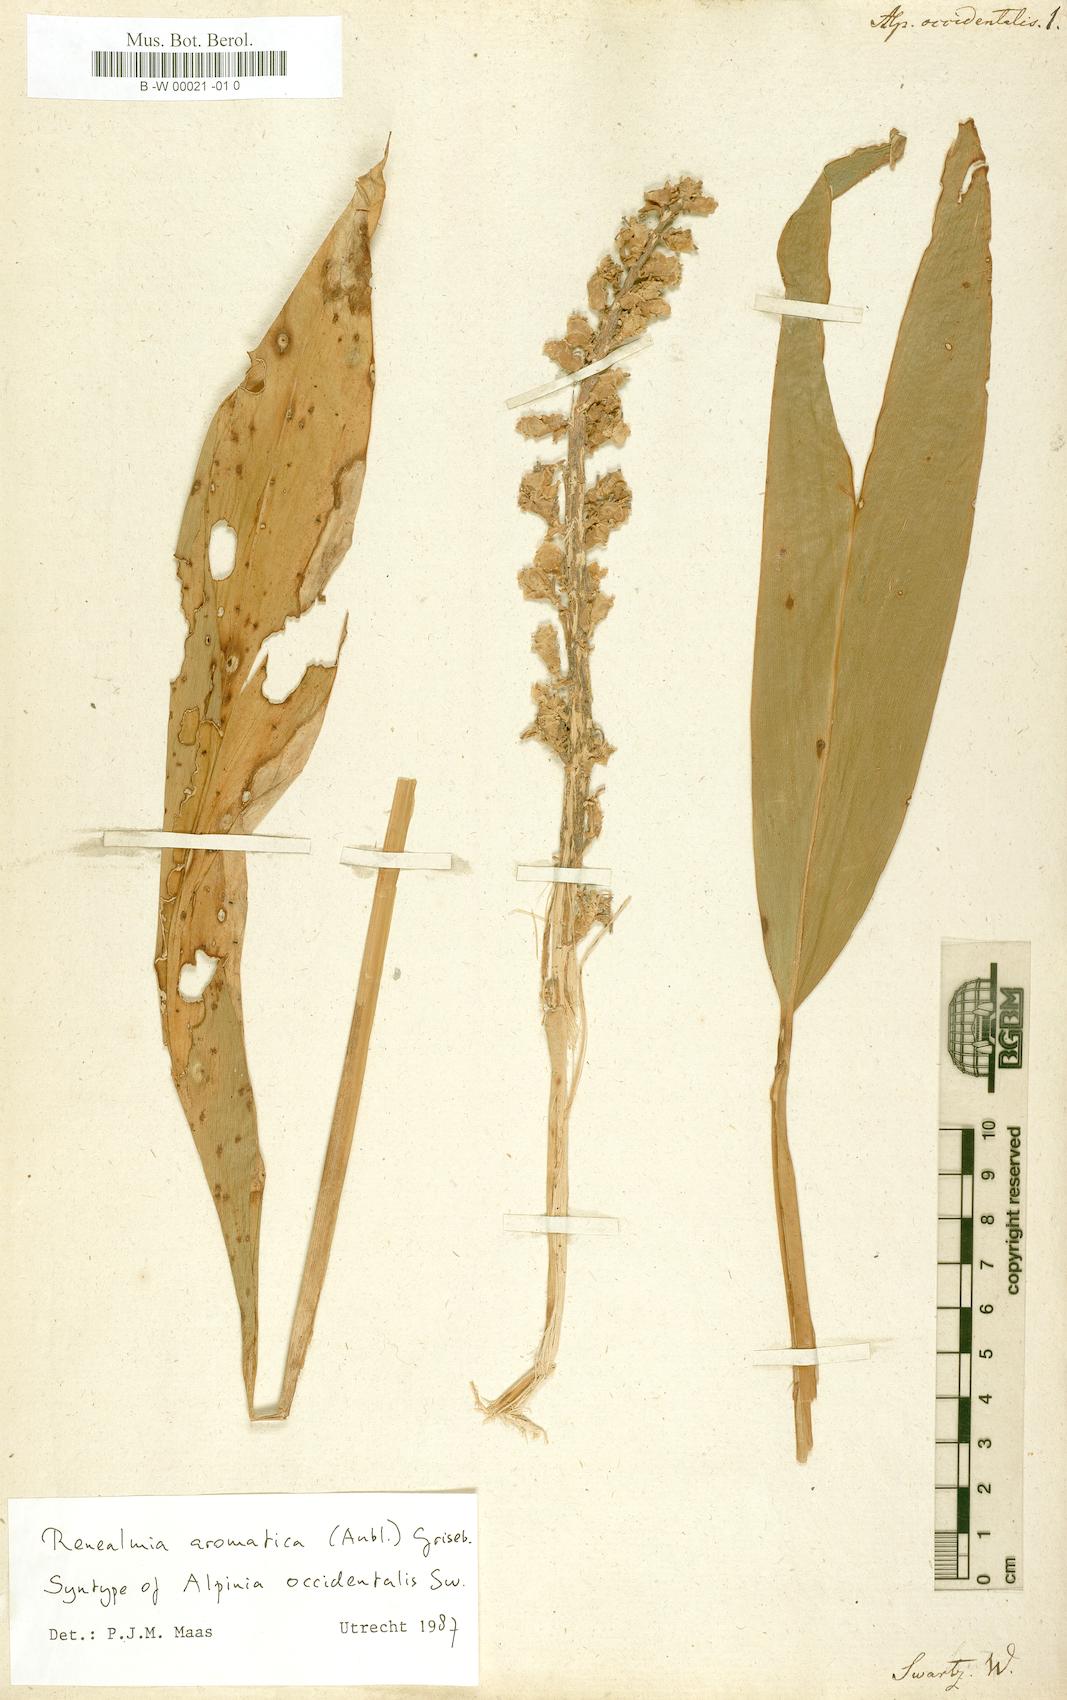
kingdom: Plantae
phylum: Tracheophyta
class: Liliopsida
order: Zingiberales
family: Zingiberaceae
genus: Renealmia
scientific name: Renealmia aromatica
